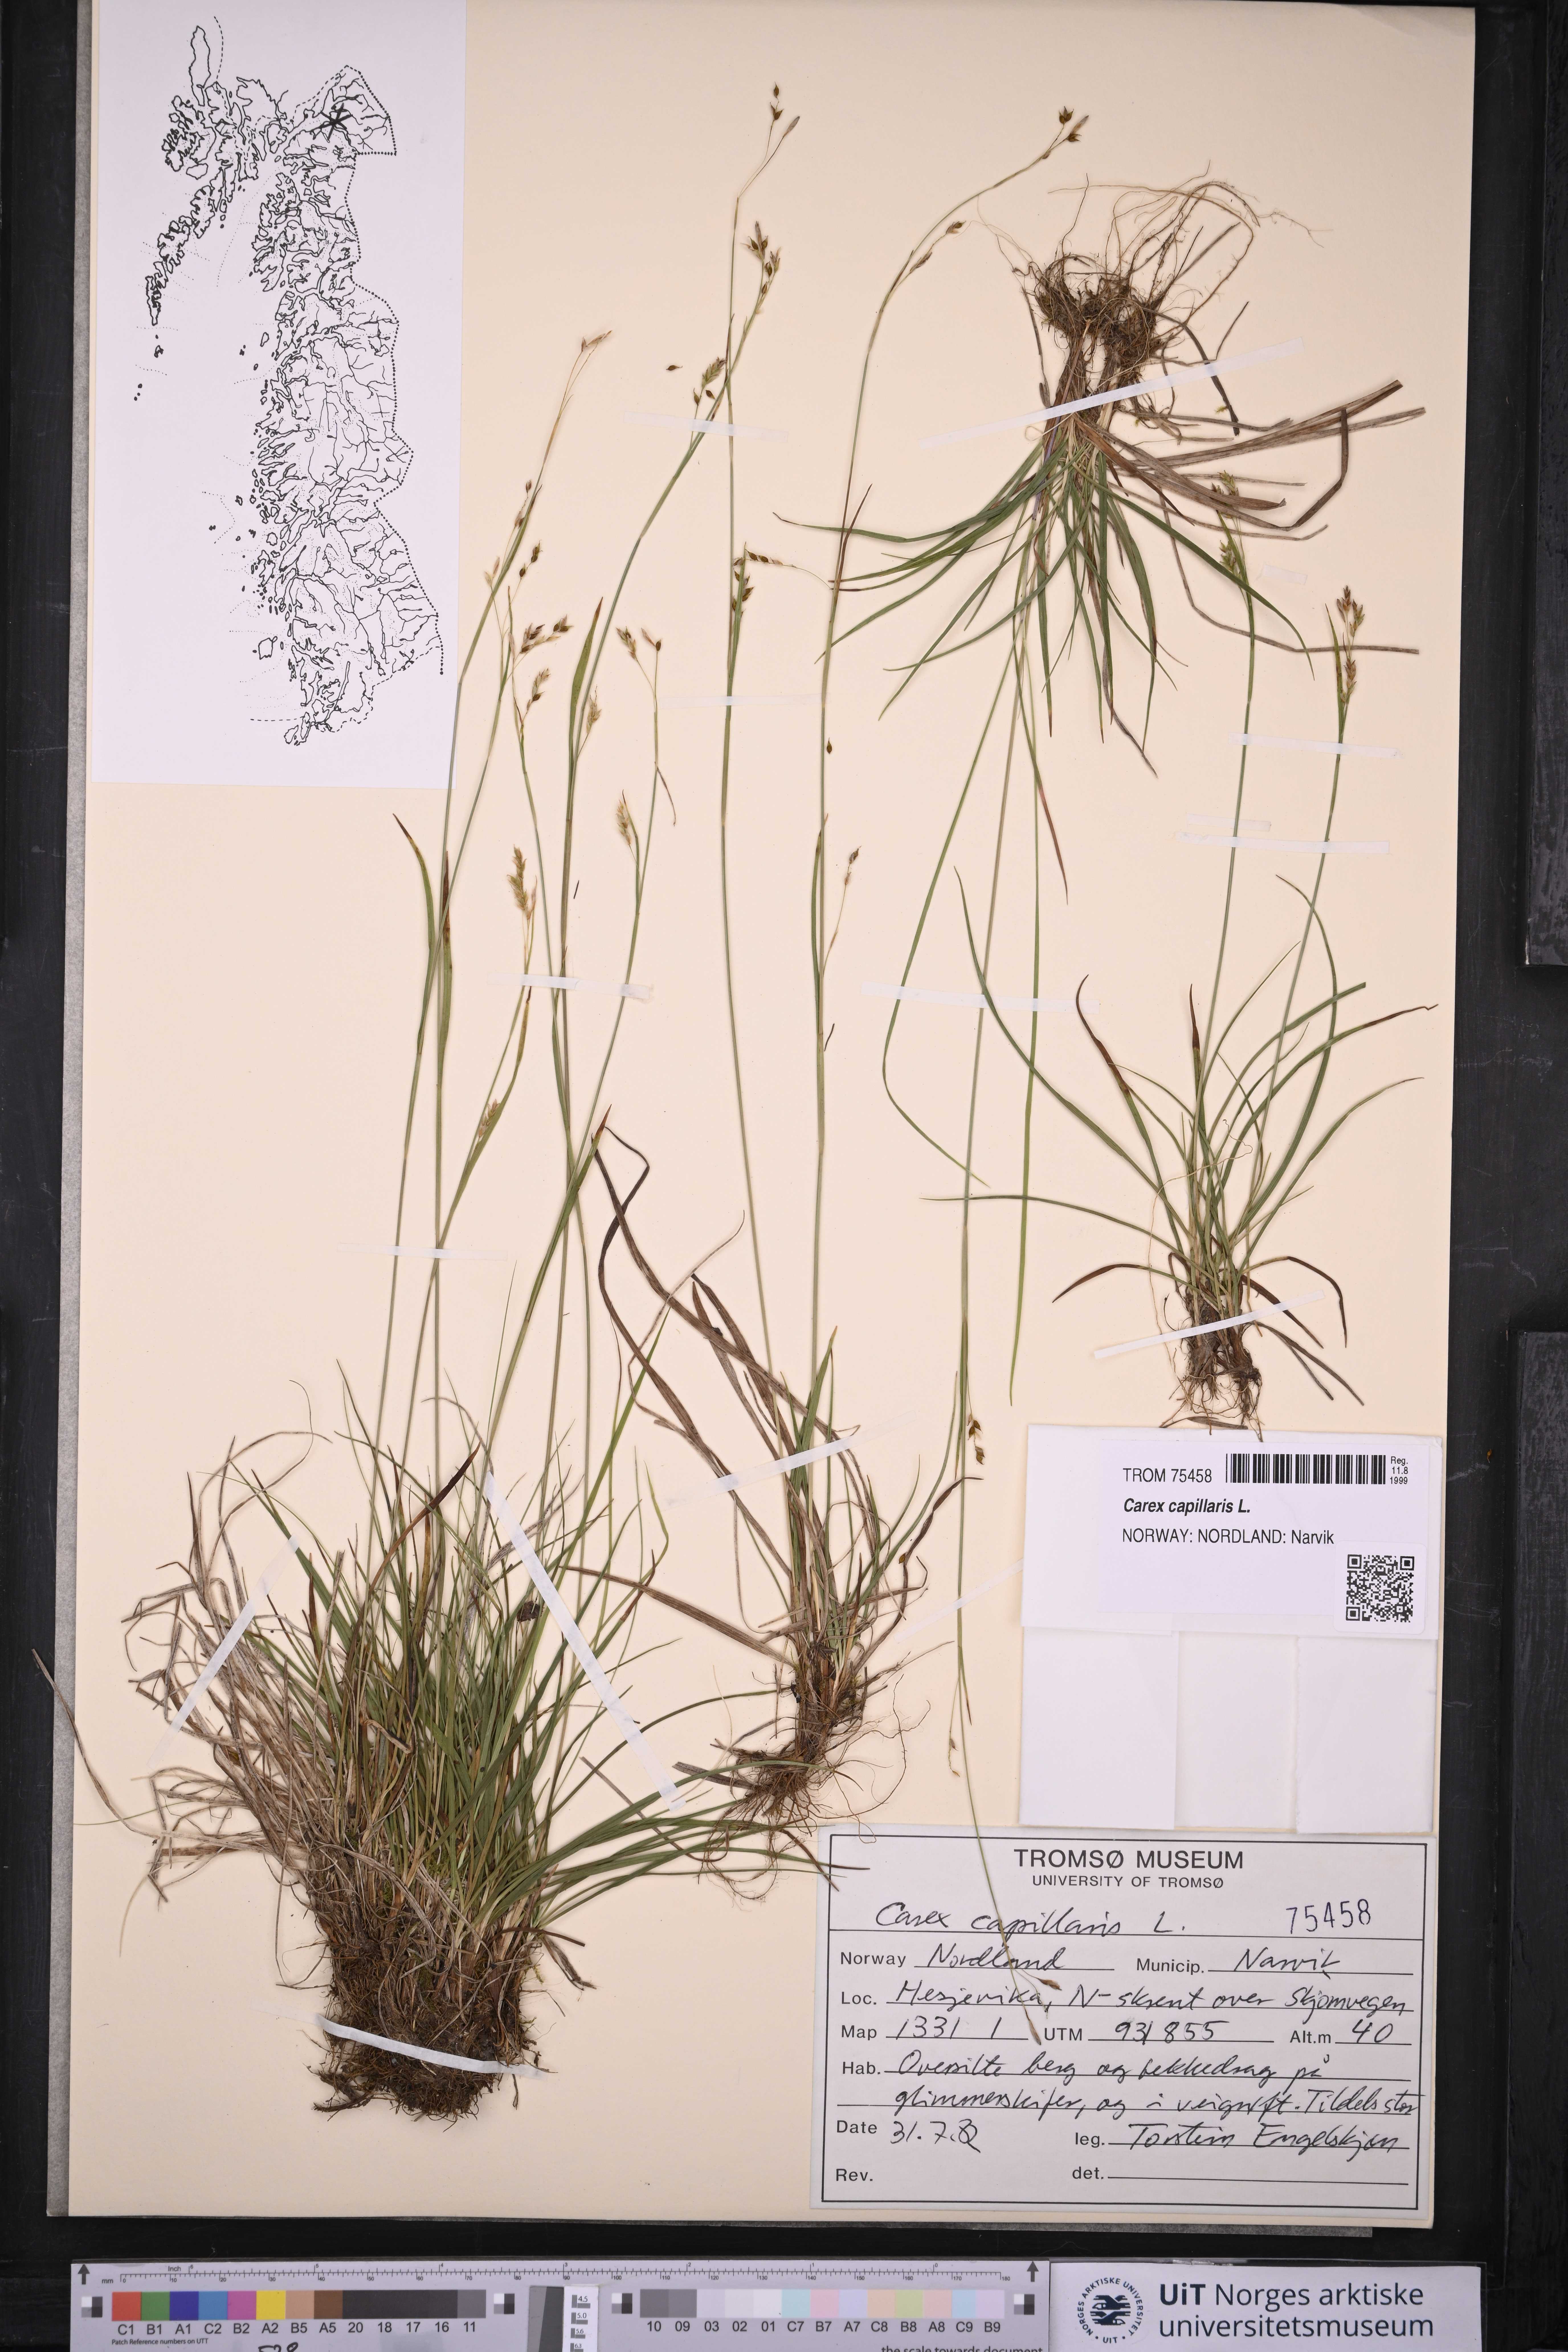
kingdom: Plantae
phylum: Tracheophyta
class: Liliopsida
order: Poales
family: Cyperaceae
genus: Carex
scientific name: Carex capillaris
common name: Hair sedge
